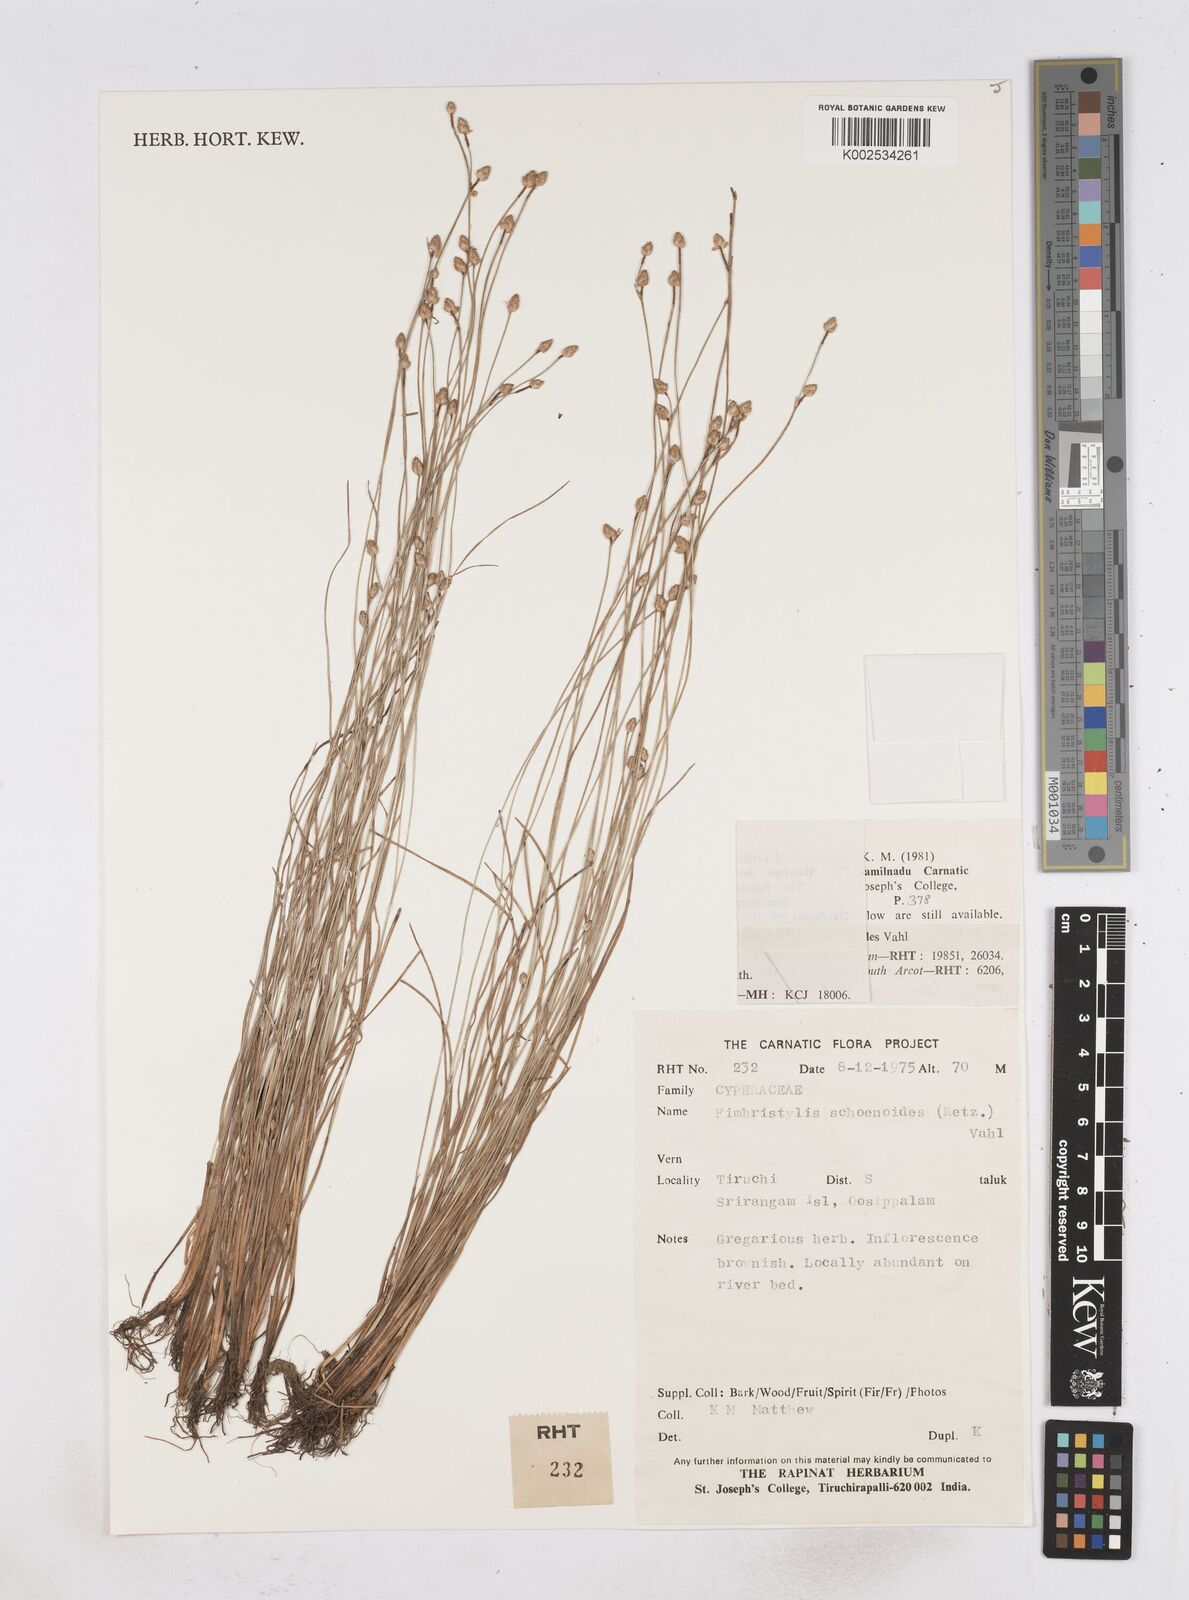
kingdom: Plantae
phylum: Tracheophyta
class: Liliopsida
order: Poales
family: Cyperaceae
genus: Fimbristylis
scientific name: Fimbristylis ferruginea
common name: West indian fimbry
